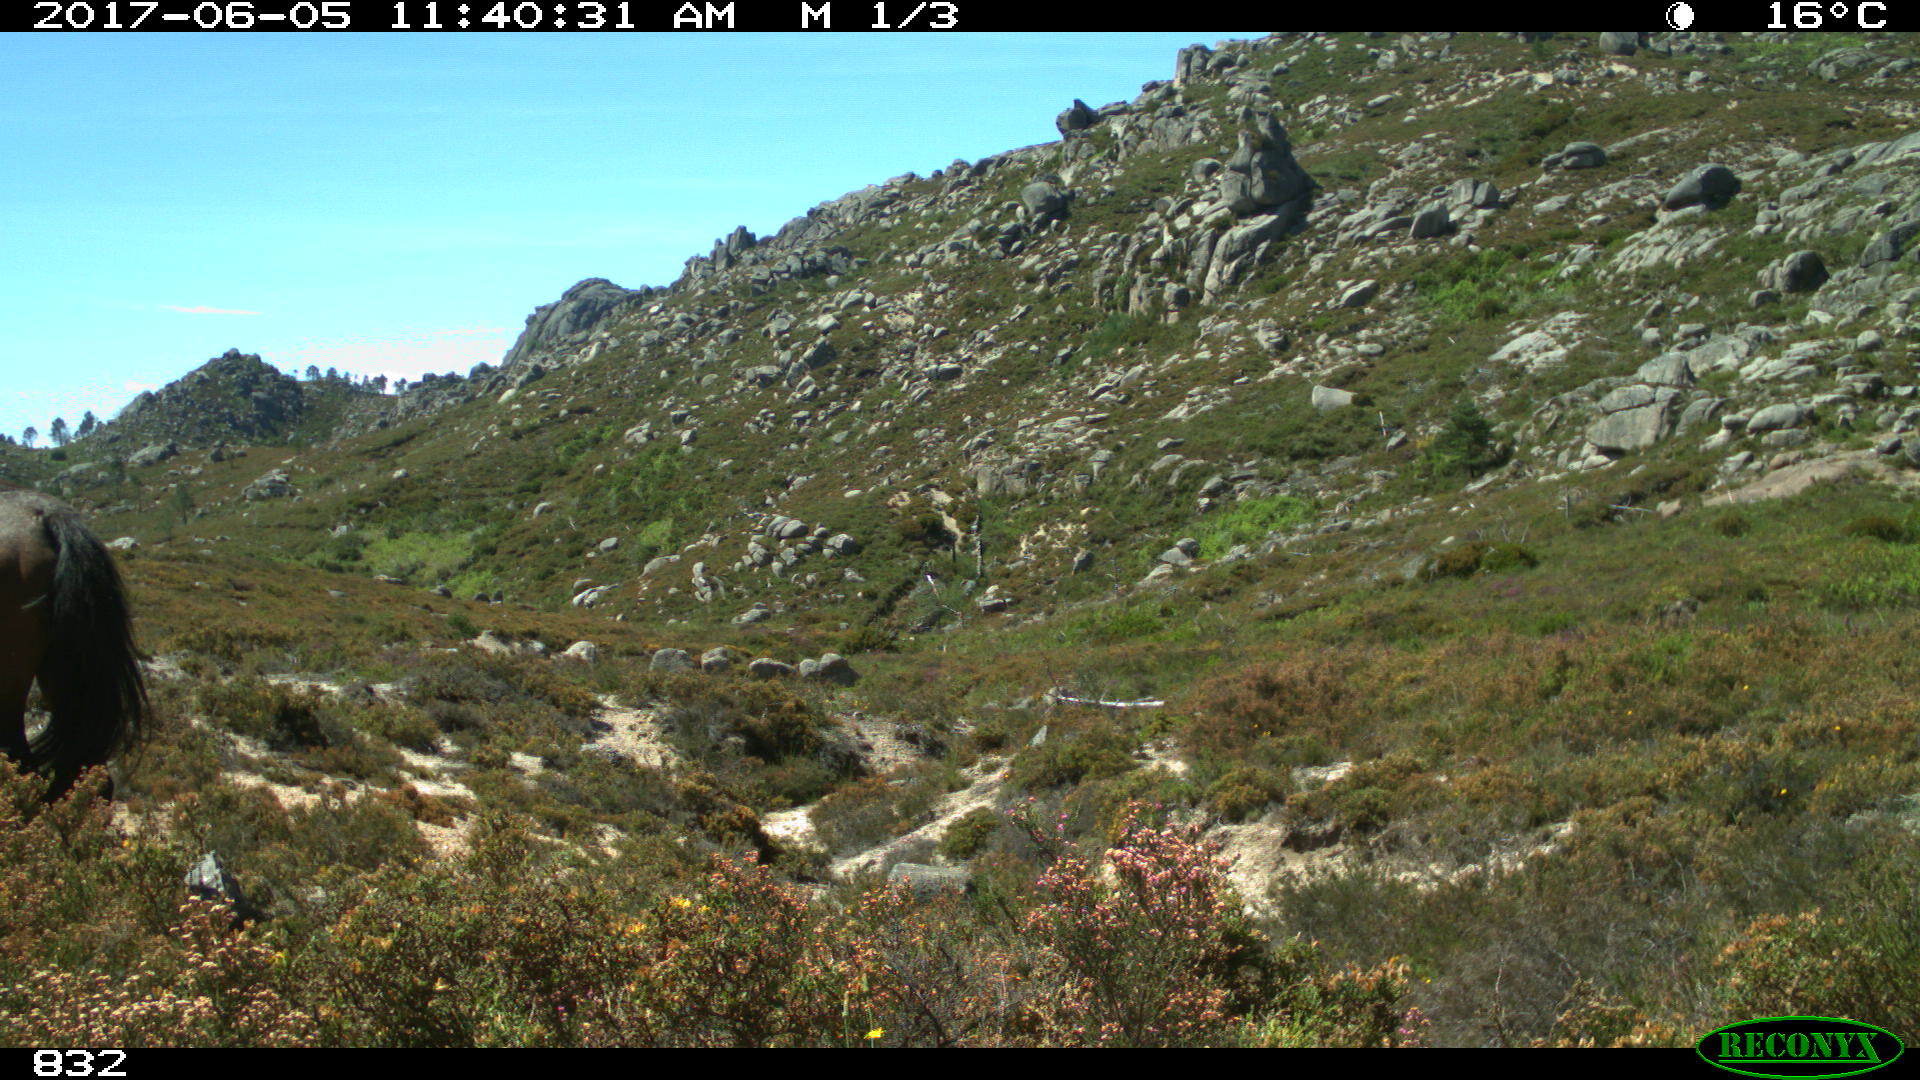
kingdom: Animalia
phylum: Chordata
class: Mammalia
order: Perissodactyla
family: Equidae
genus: Equus
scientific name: Equus caballus
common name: Horse
